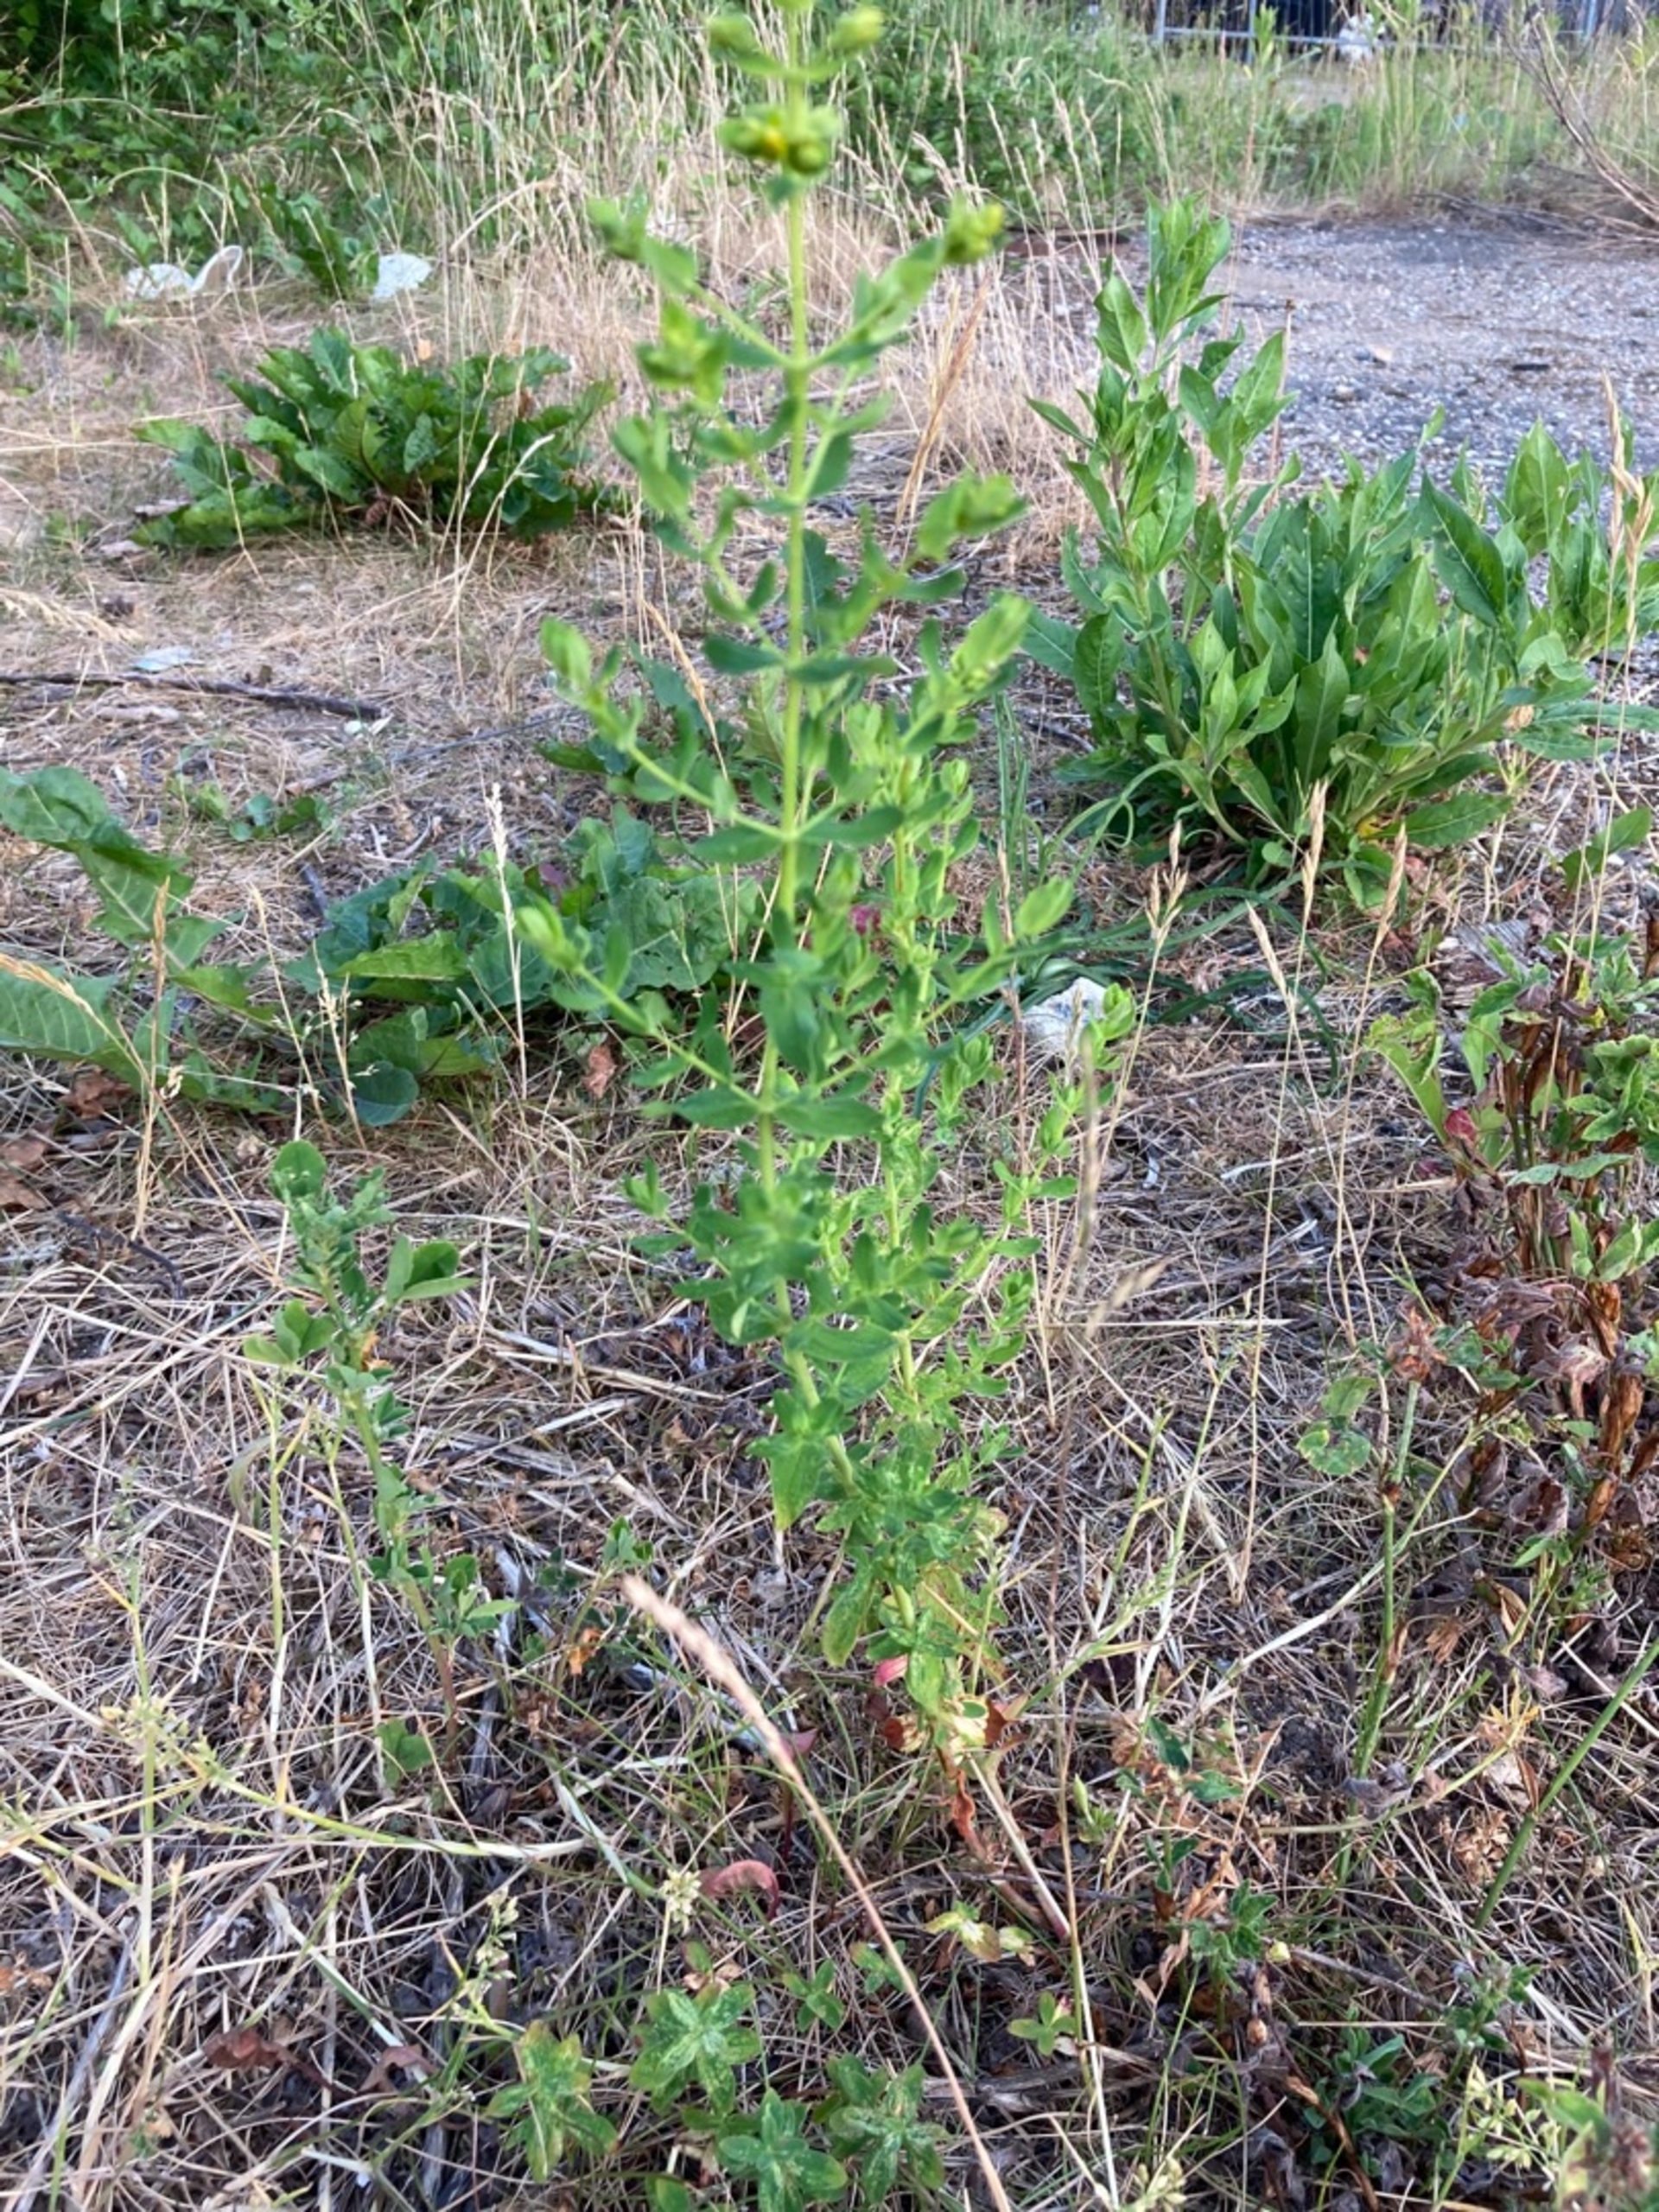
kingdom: Plantae
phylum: Tracheophyta
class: Magnoliopsida
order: Malpighiales
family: Hypericaceae
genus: Hypericum
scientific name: Hypericum perforatum
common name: Prikbladet perikon
